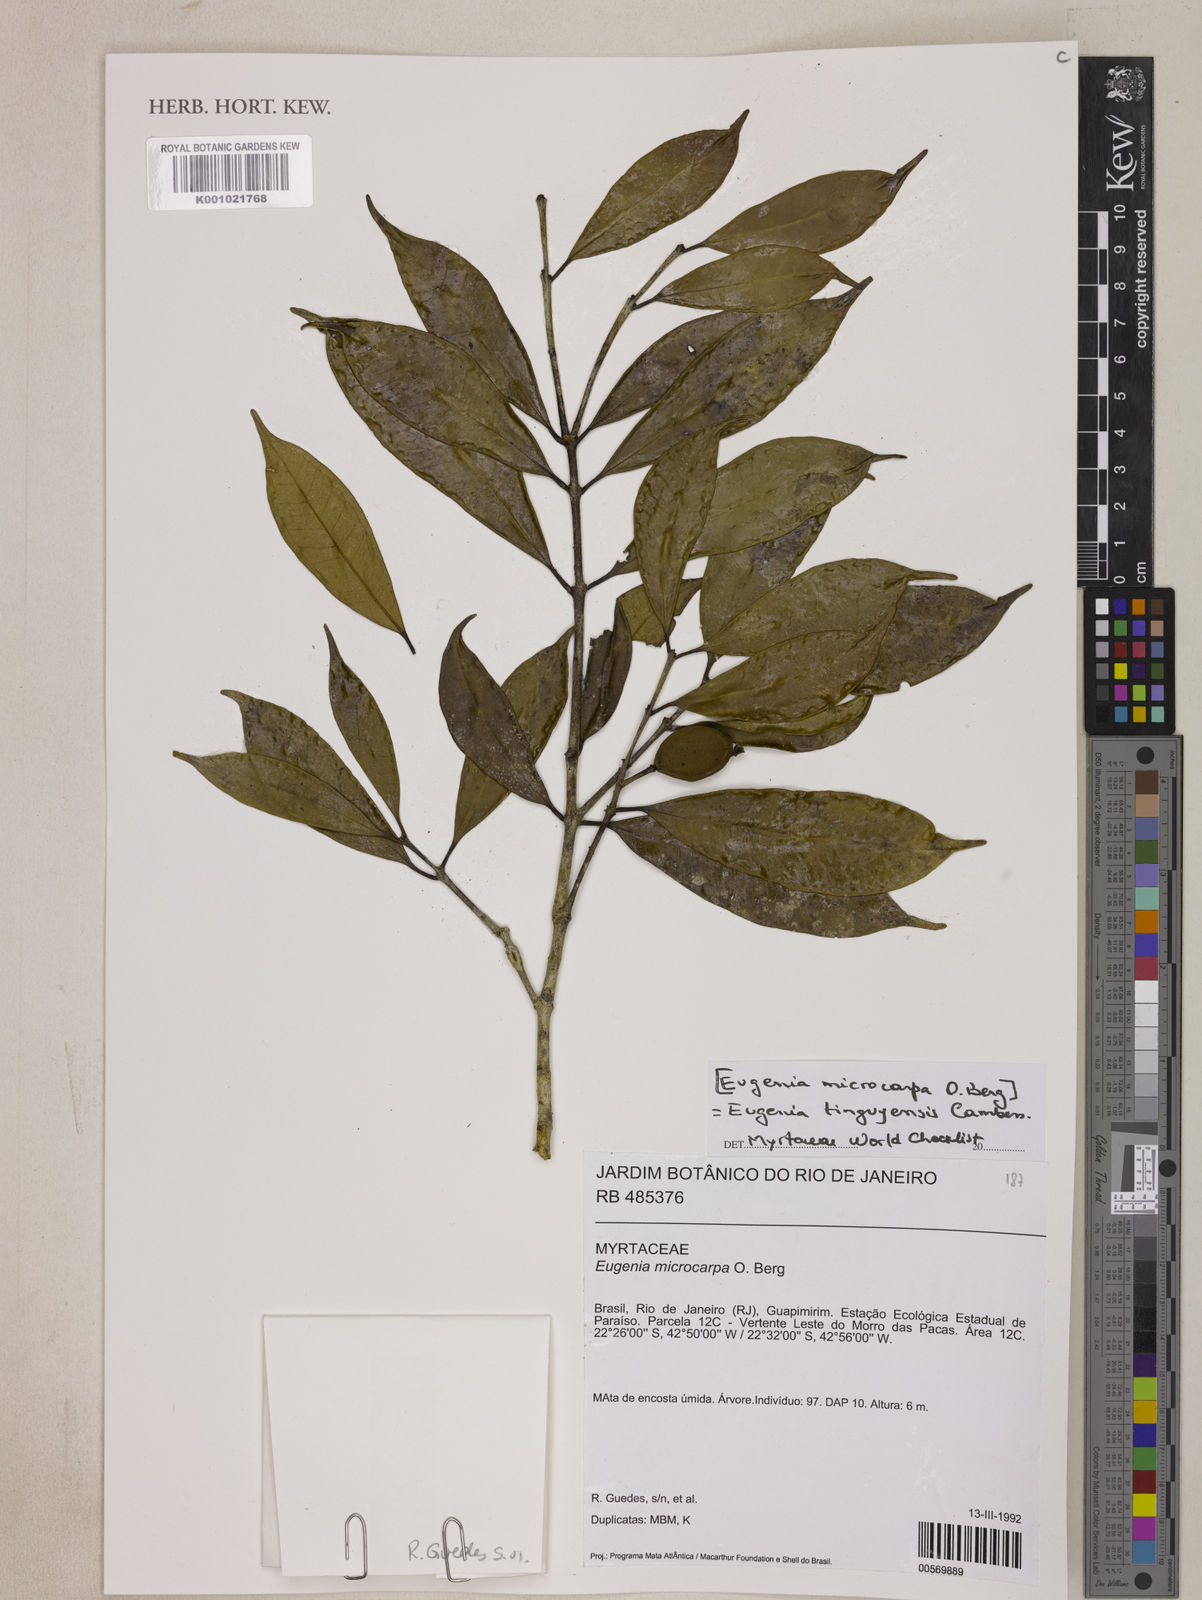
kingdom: Plantae
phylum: Tracheophyta
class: Magnoliopsida
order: Myrtales
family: Myrtaceae
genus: Eugenia
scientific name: Eugenia pisiformis
